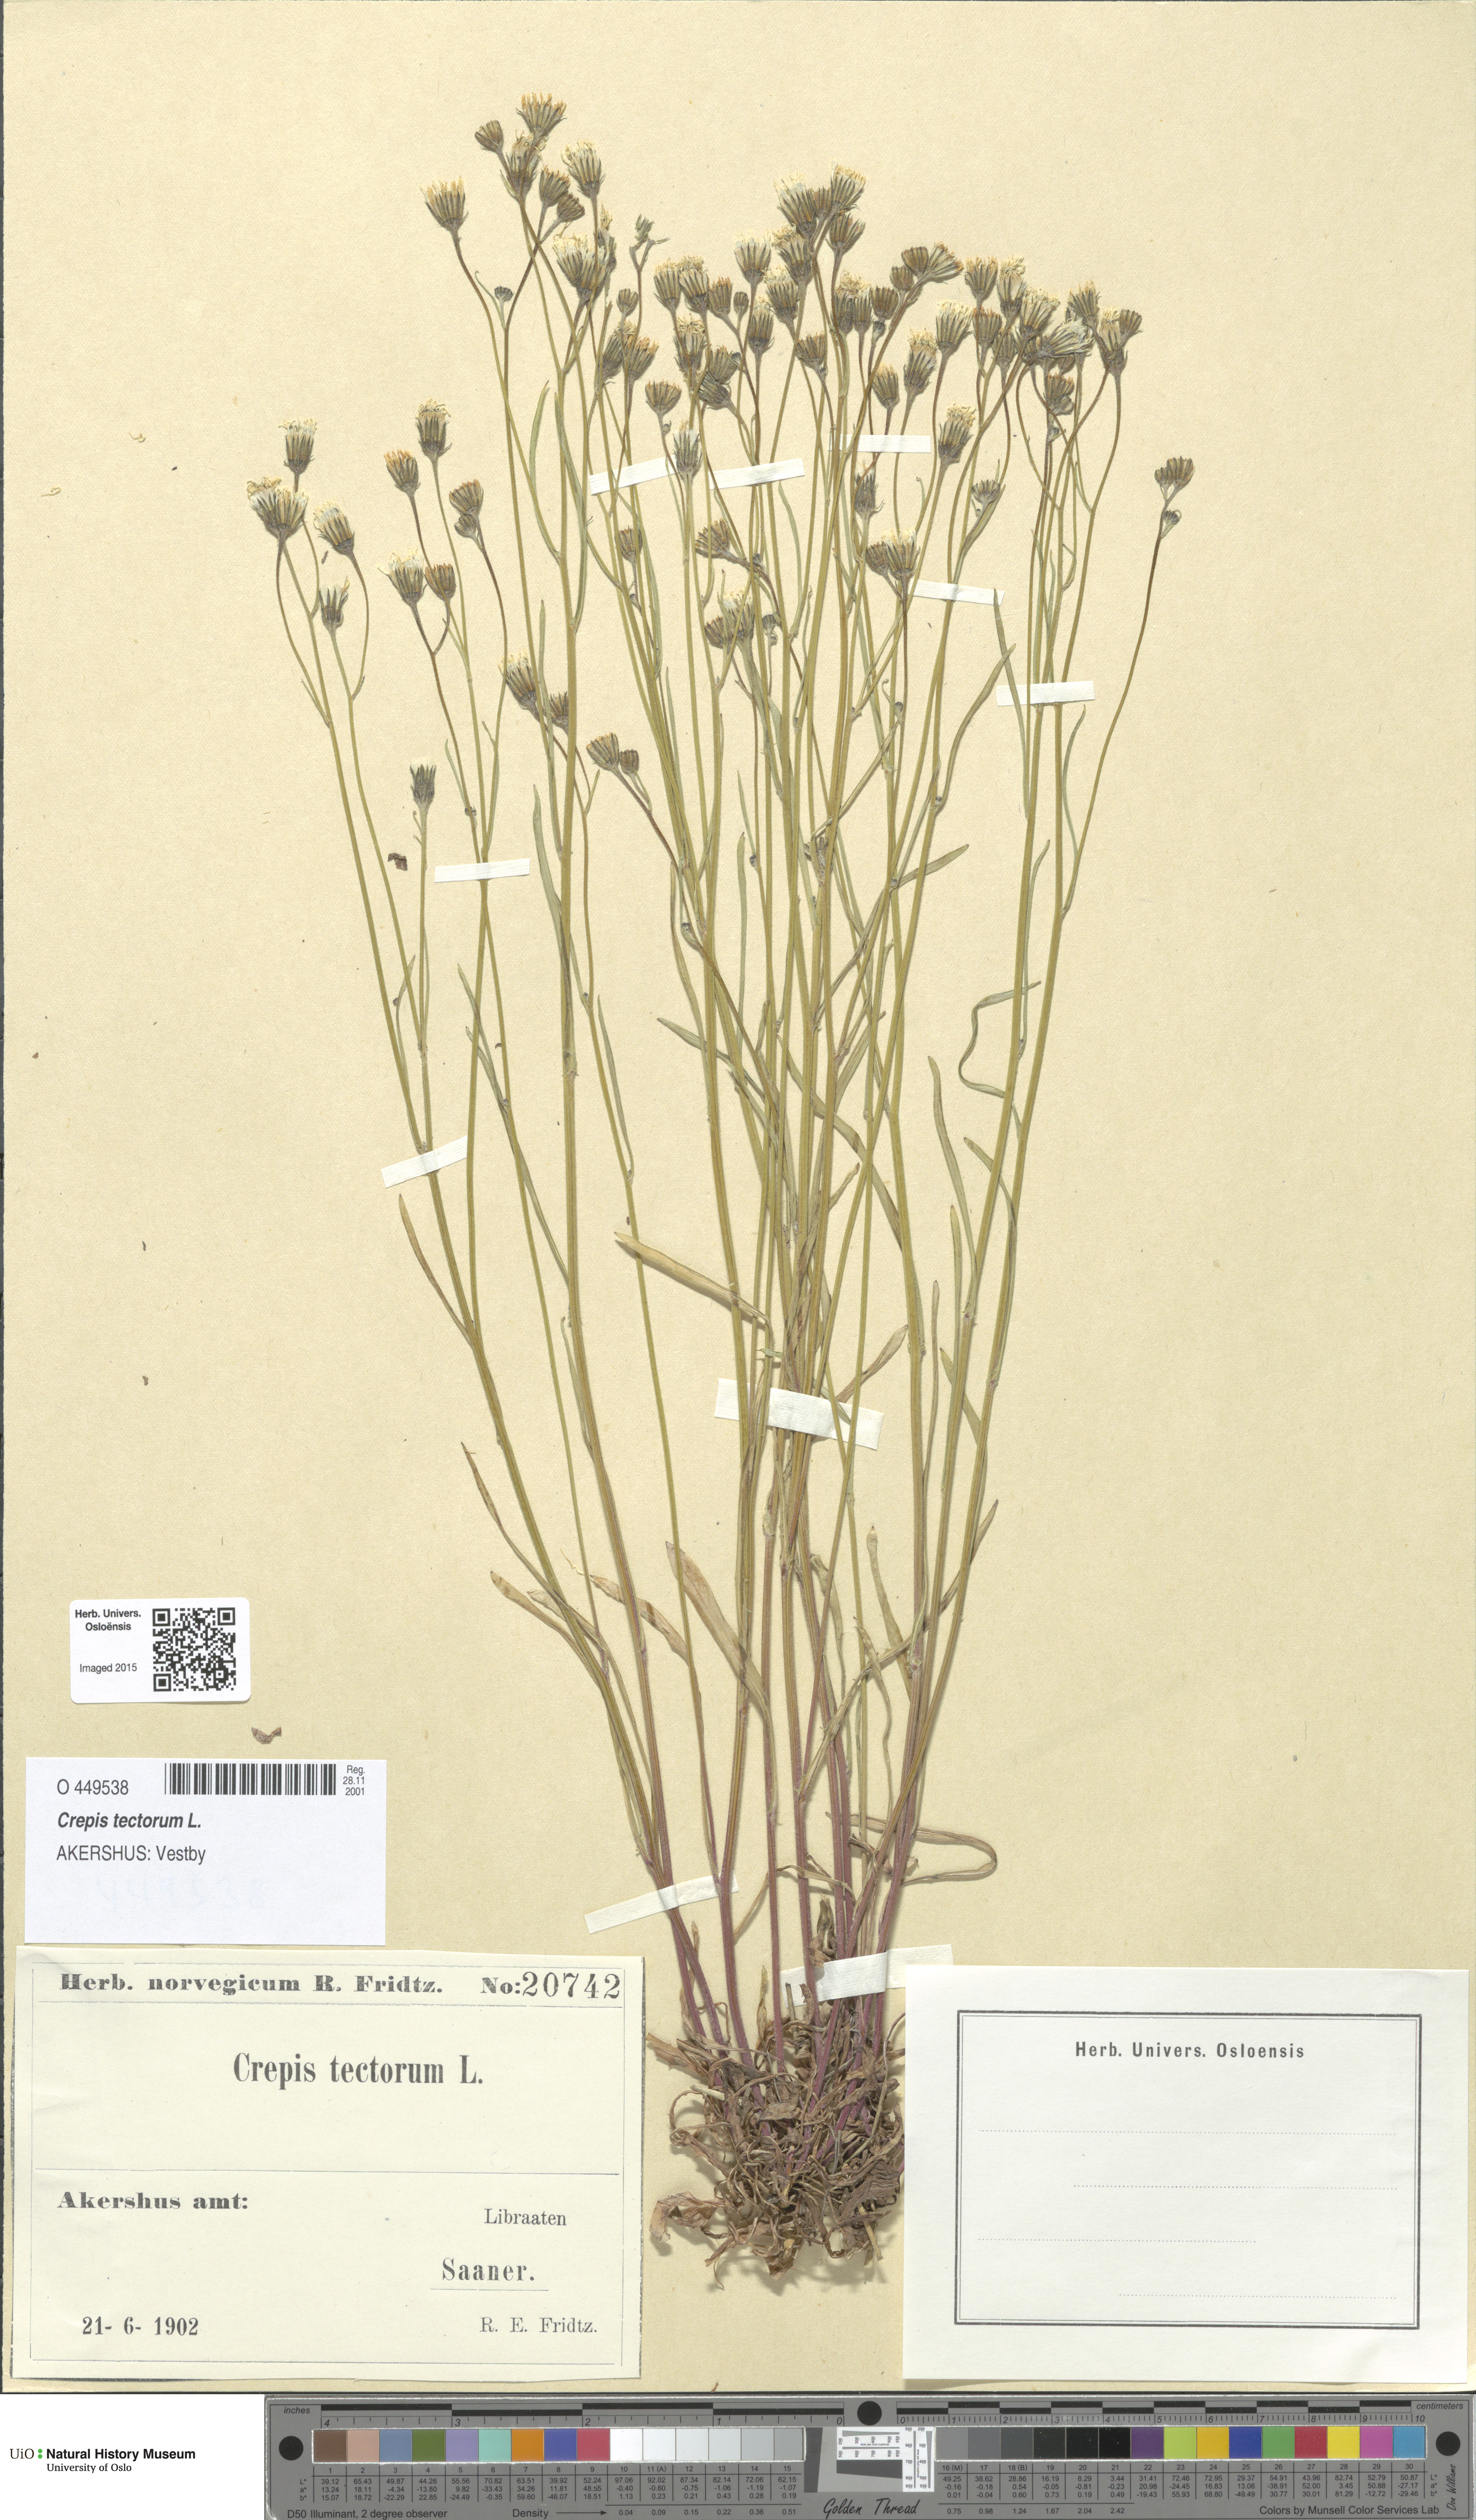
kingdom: Plantae
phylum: Tracheophyta
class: Magnoliopsida
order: Asterales
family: Asteraceae
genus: Crepis
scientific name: Crepis tectorum
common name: Narrow-leaved hawk's-beard
